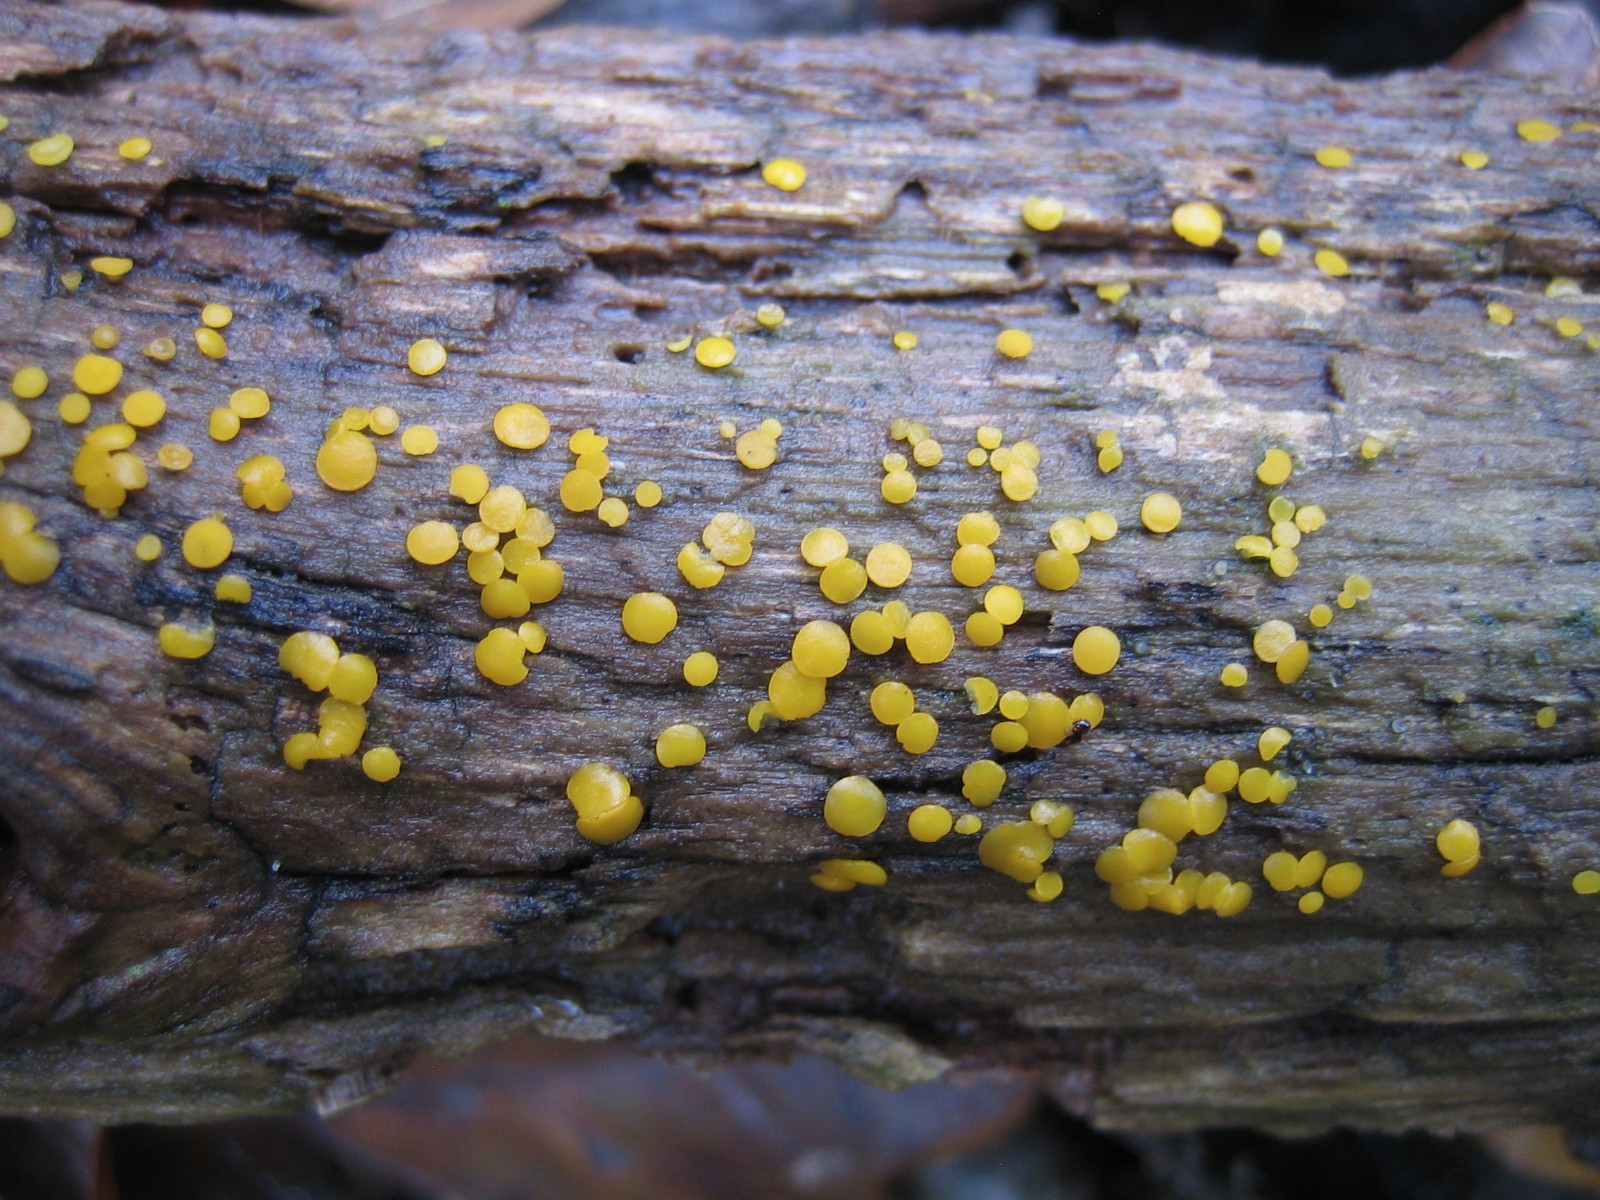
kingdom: Fungi
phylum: Ascomycota
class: Leotiomycetes
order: Helotiales
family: Pezizellaceae
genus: Calycina
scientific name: Calycina citrina
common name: almindelig gulskive
